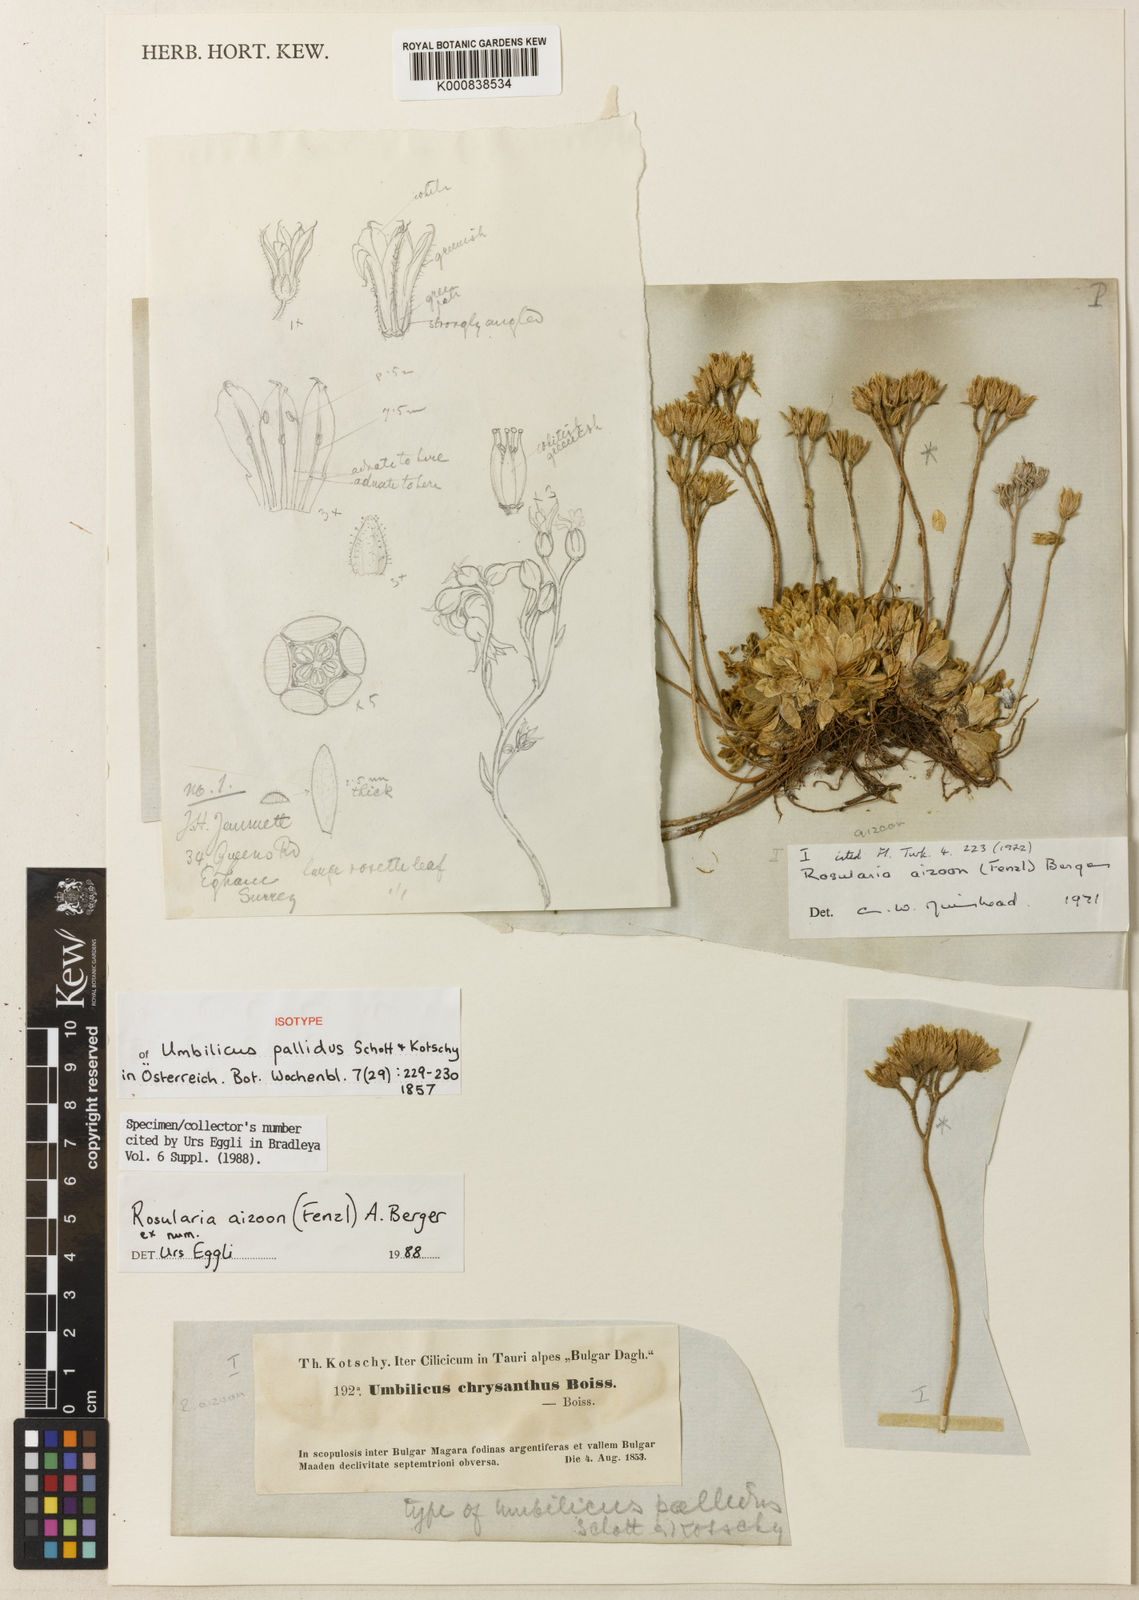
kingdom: Plantae
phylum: Tracheophyta
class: Magnoliopsida
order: Saxifragales
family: Crassulaceae
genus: Prometheum
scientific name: Prometheum aizoon
